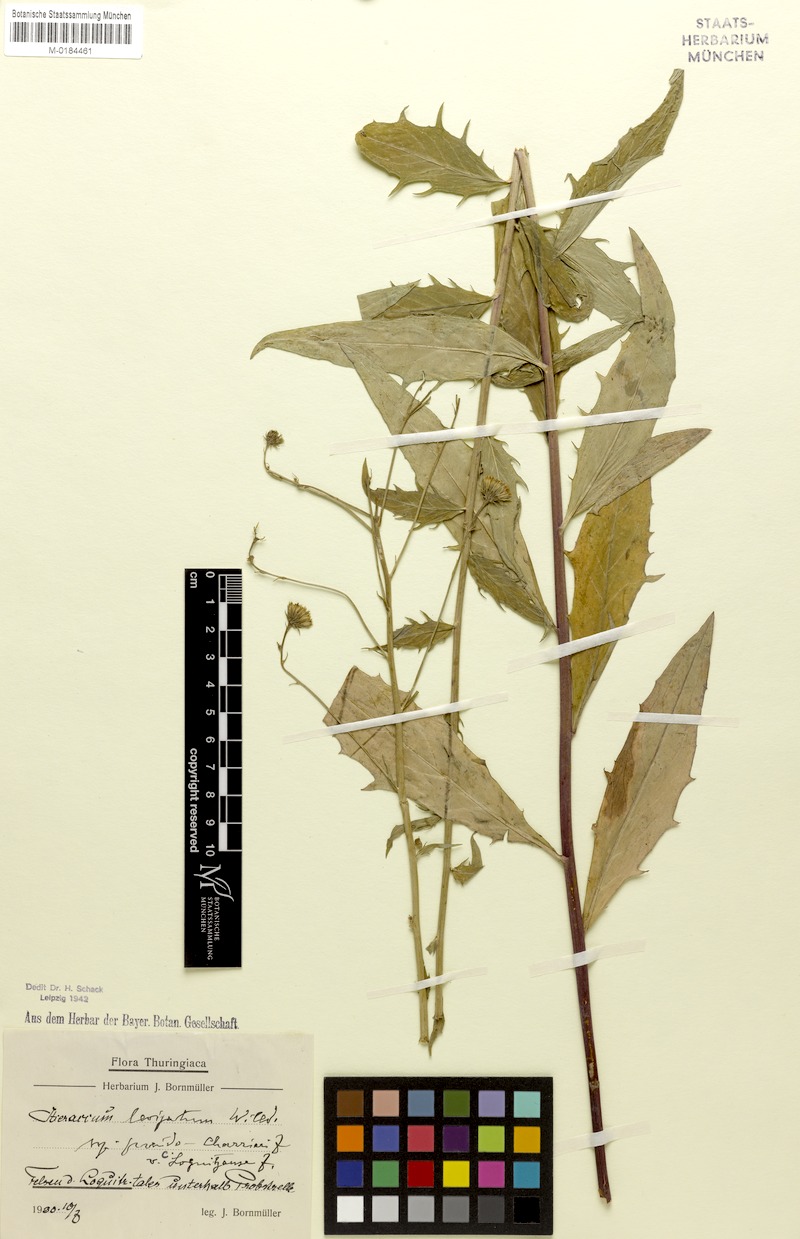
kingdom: Plantae
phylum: Tracheophyta
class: Magnoliopsida
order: Asterales
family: Asteraceae
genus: Hieracium
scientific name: Hieracium laevigatum
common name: Smooth hawkweed
